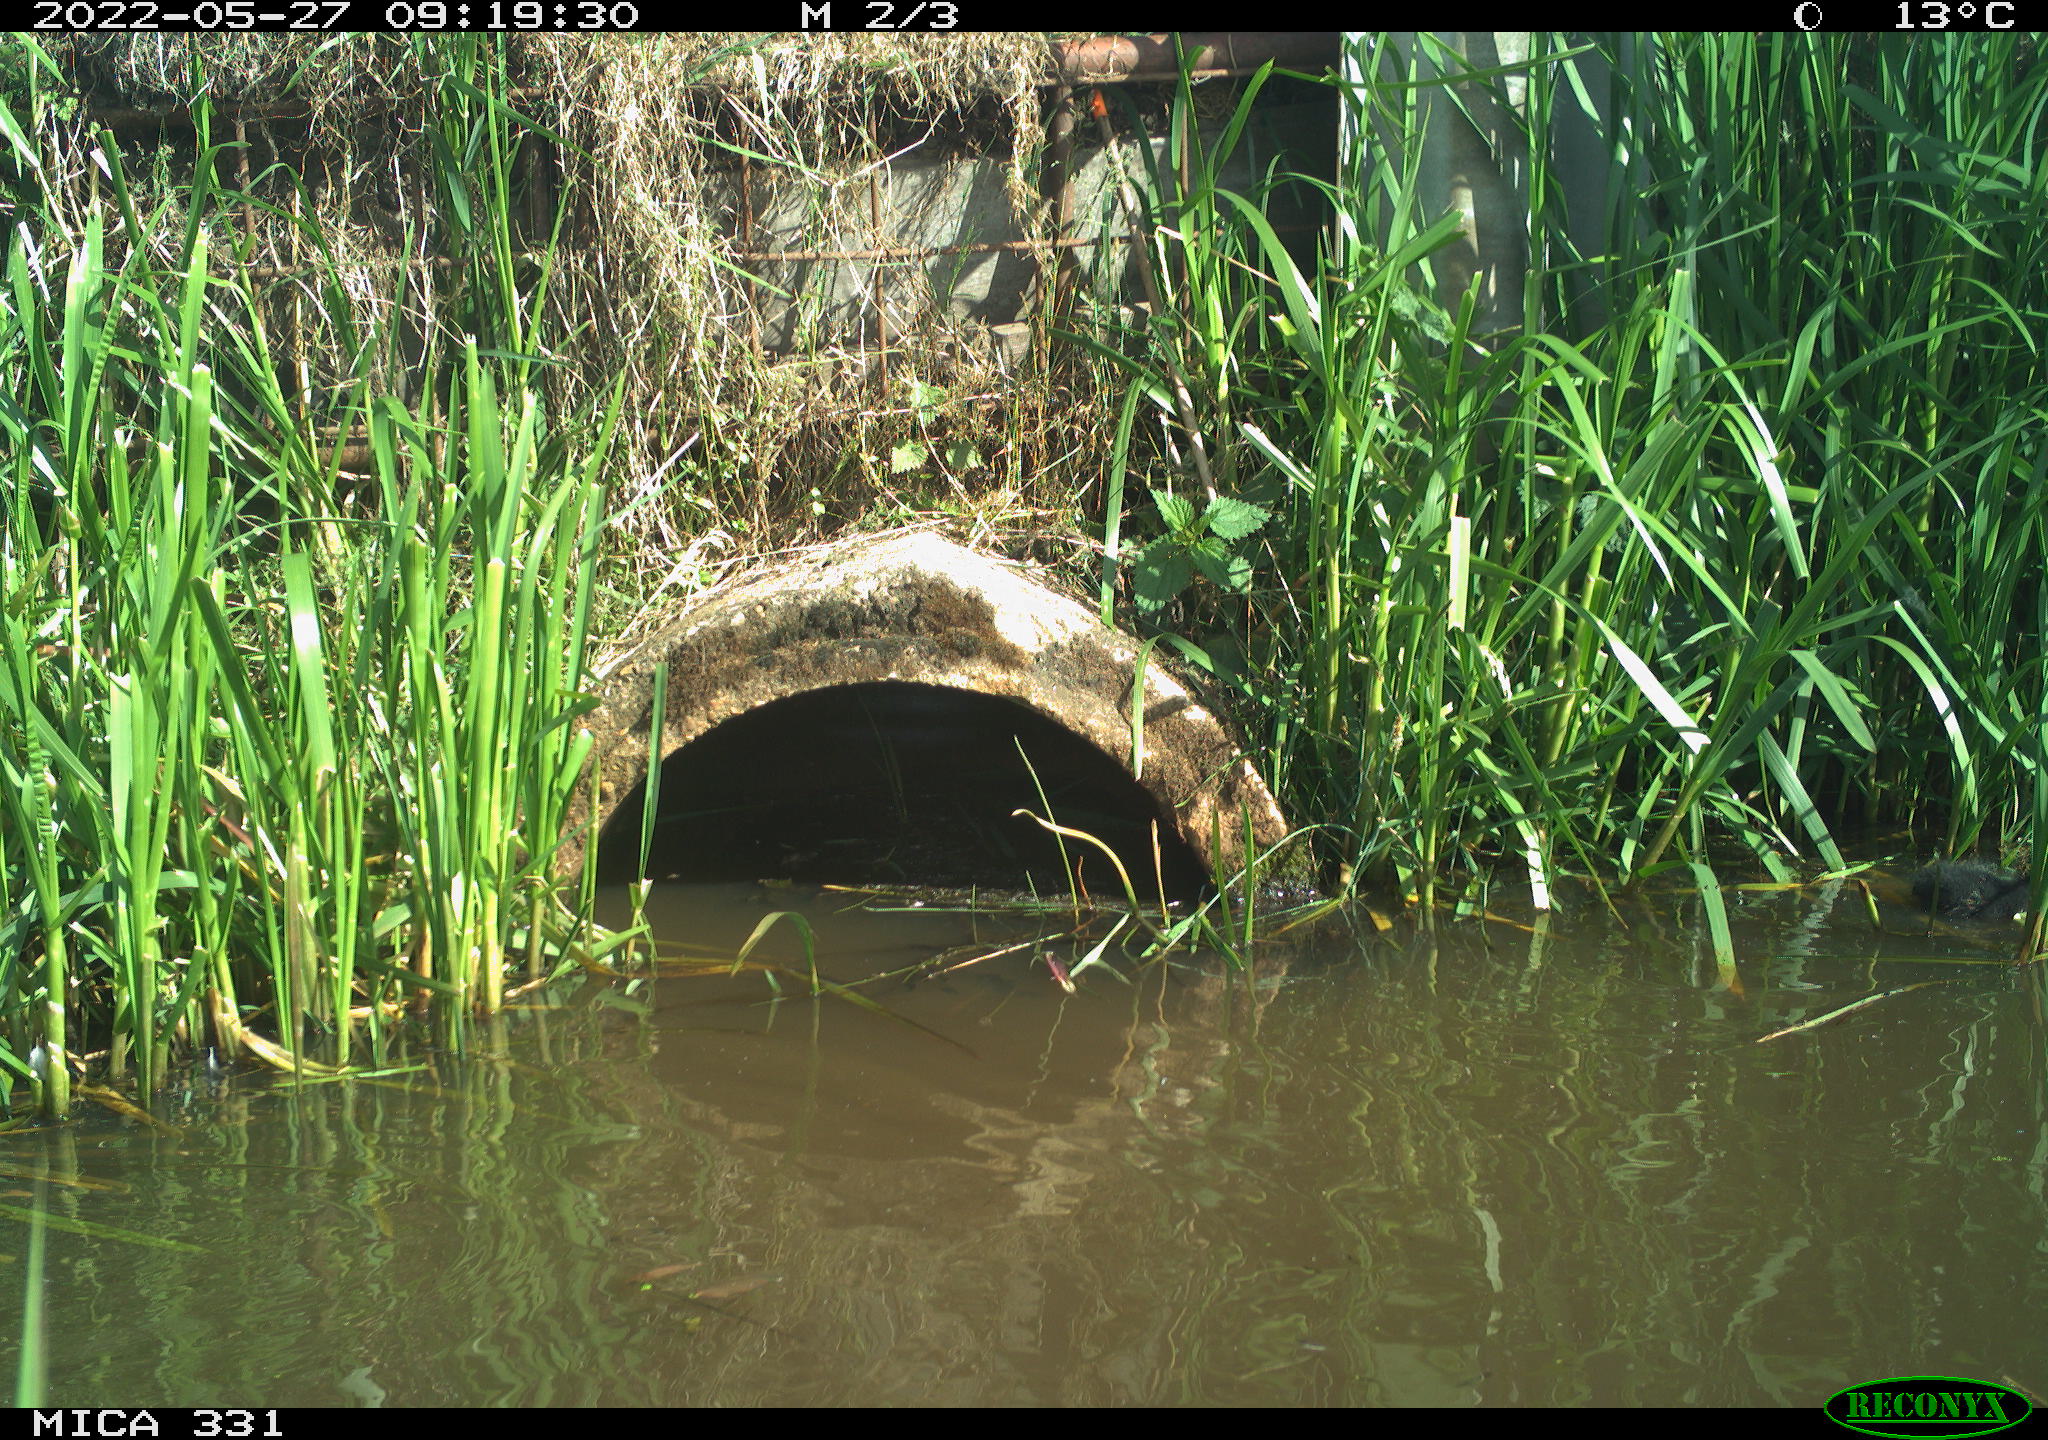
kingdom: Animalia
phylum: Chordata
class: Aves
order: Gruiformes
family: Rallidae
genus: Gallinula
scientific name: Gallinula chloropus
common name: Common moorhen
